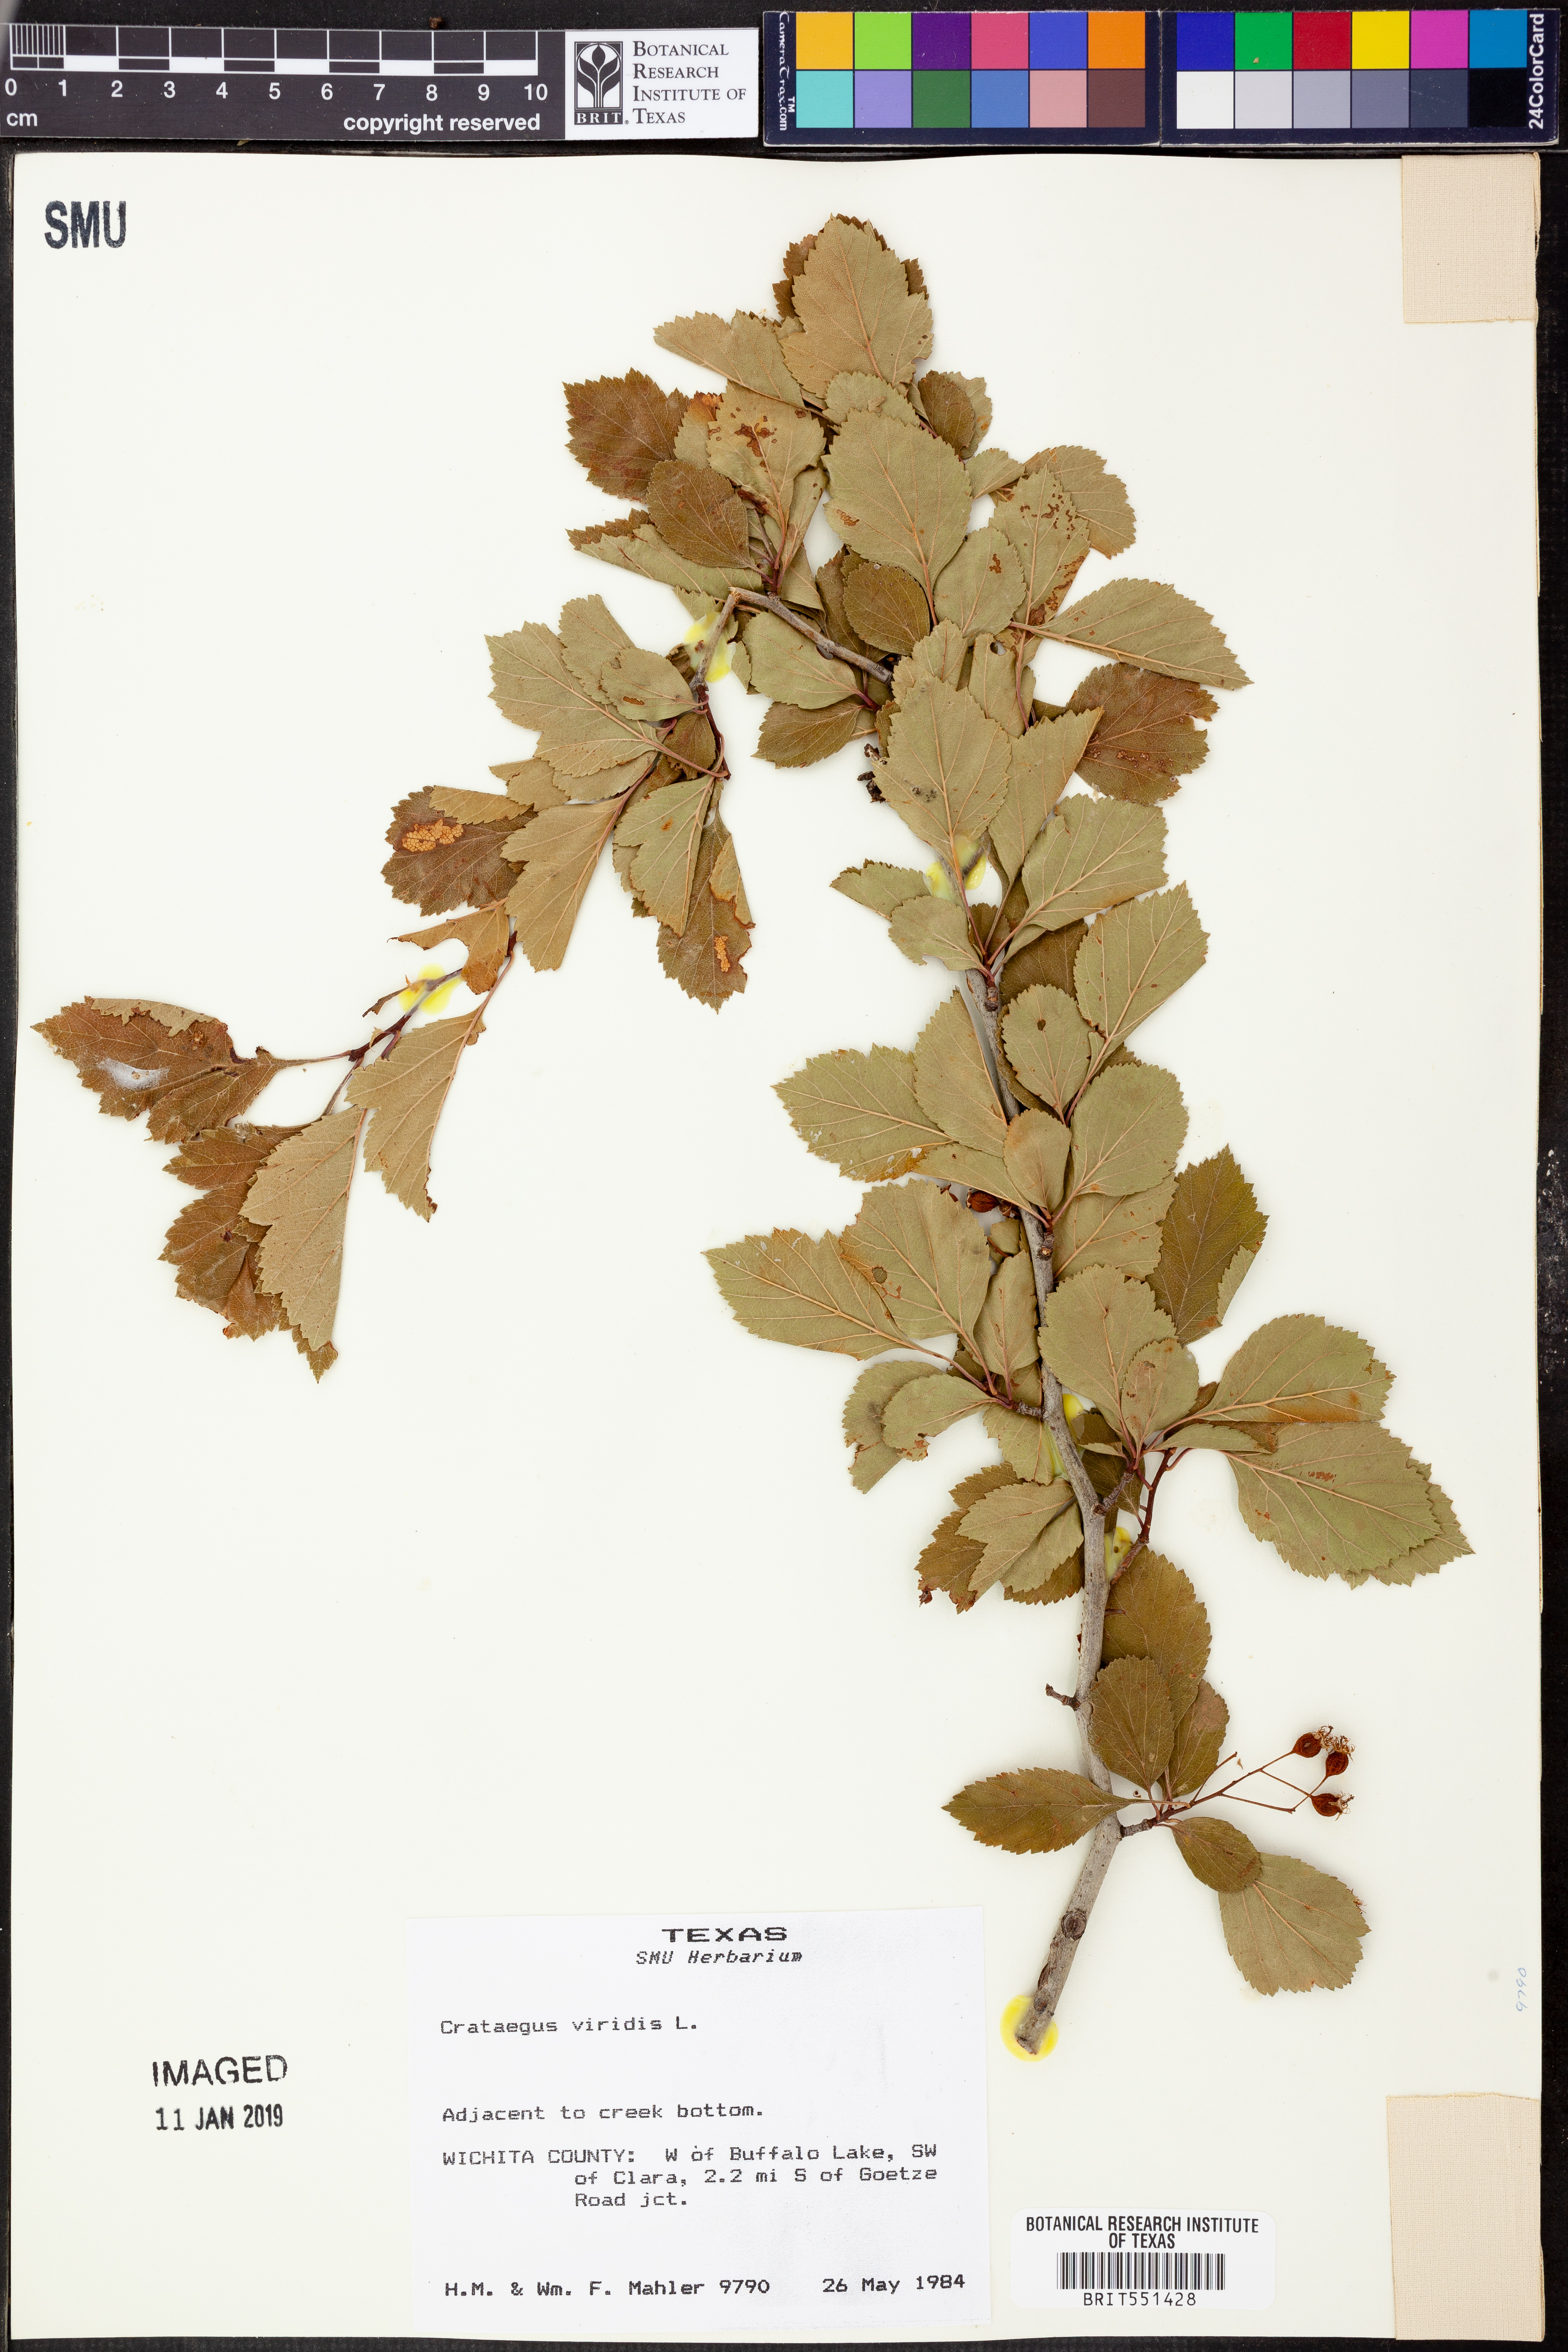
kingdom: Plantae
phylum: Tracheophyta
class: Magnoliopsida
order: Rosales
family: Rosaceae
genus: Crataegus
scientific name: Crataegus viridis
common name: Southernthorn
